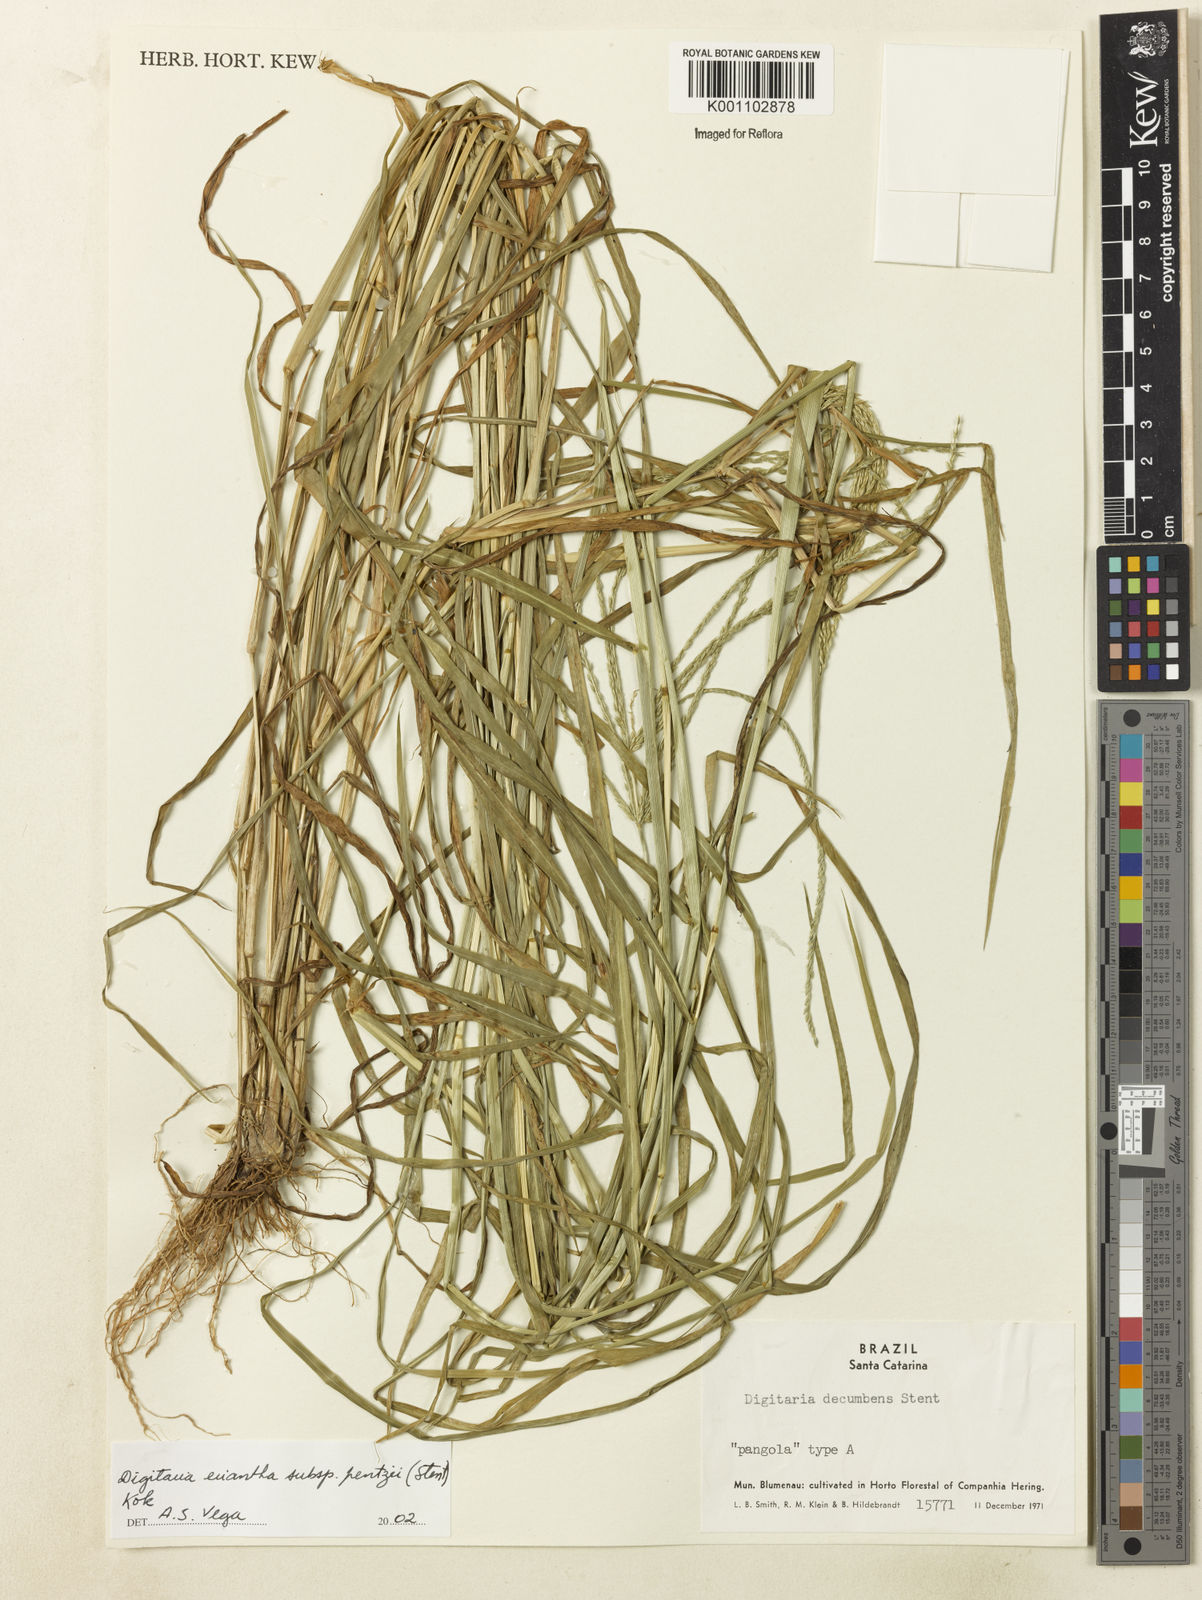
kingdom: Plantae
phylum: Tracheophyta
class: Liliopsida
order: Poales
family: Poaceae
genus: Digitaria
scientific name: Digitaria eriantha
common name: Digitgrass
